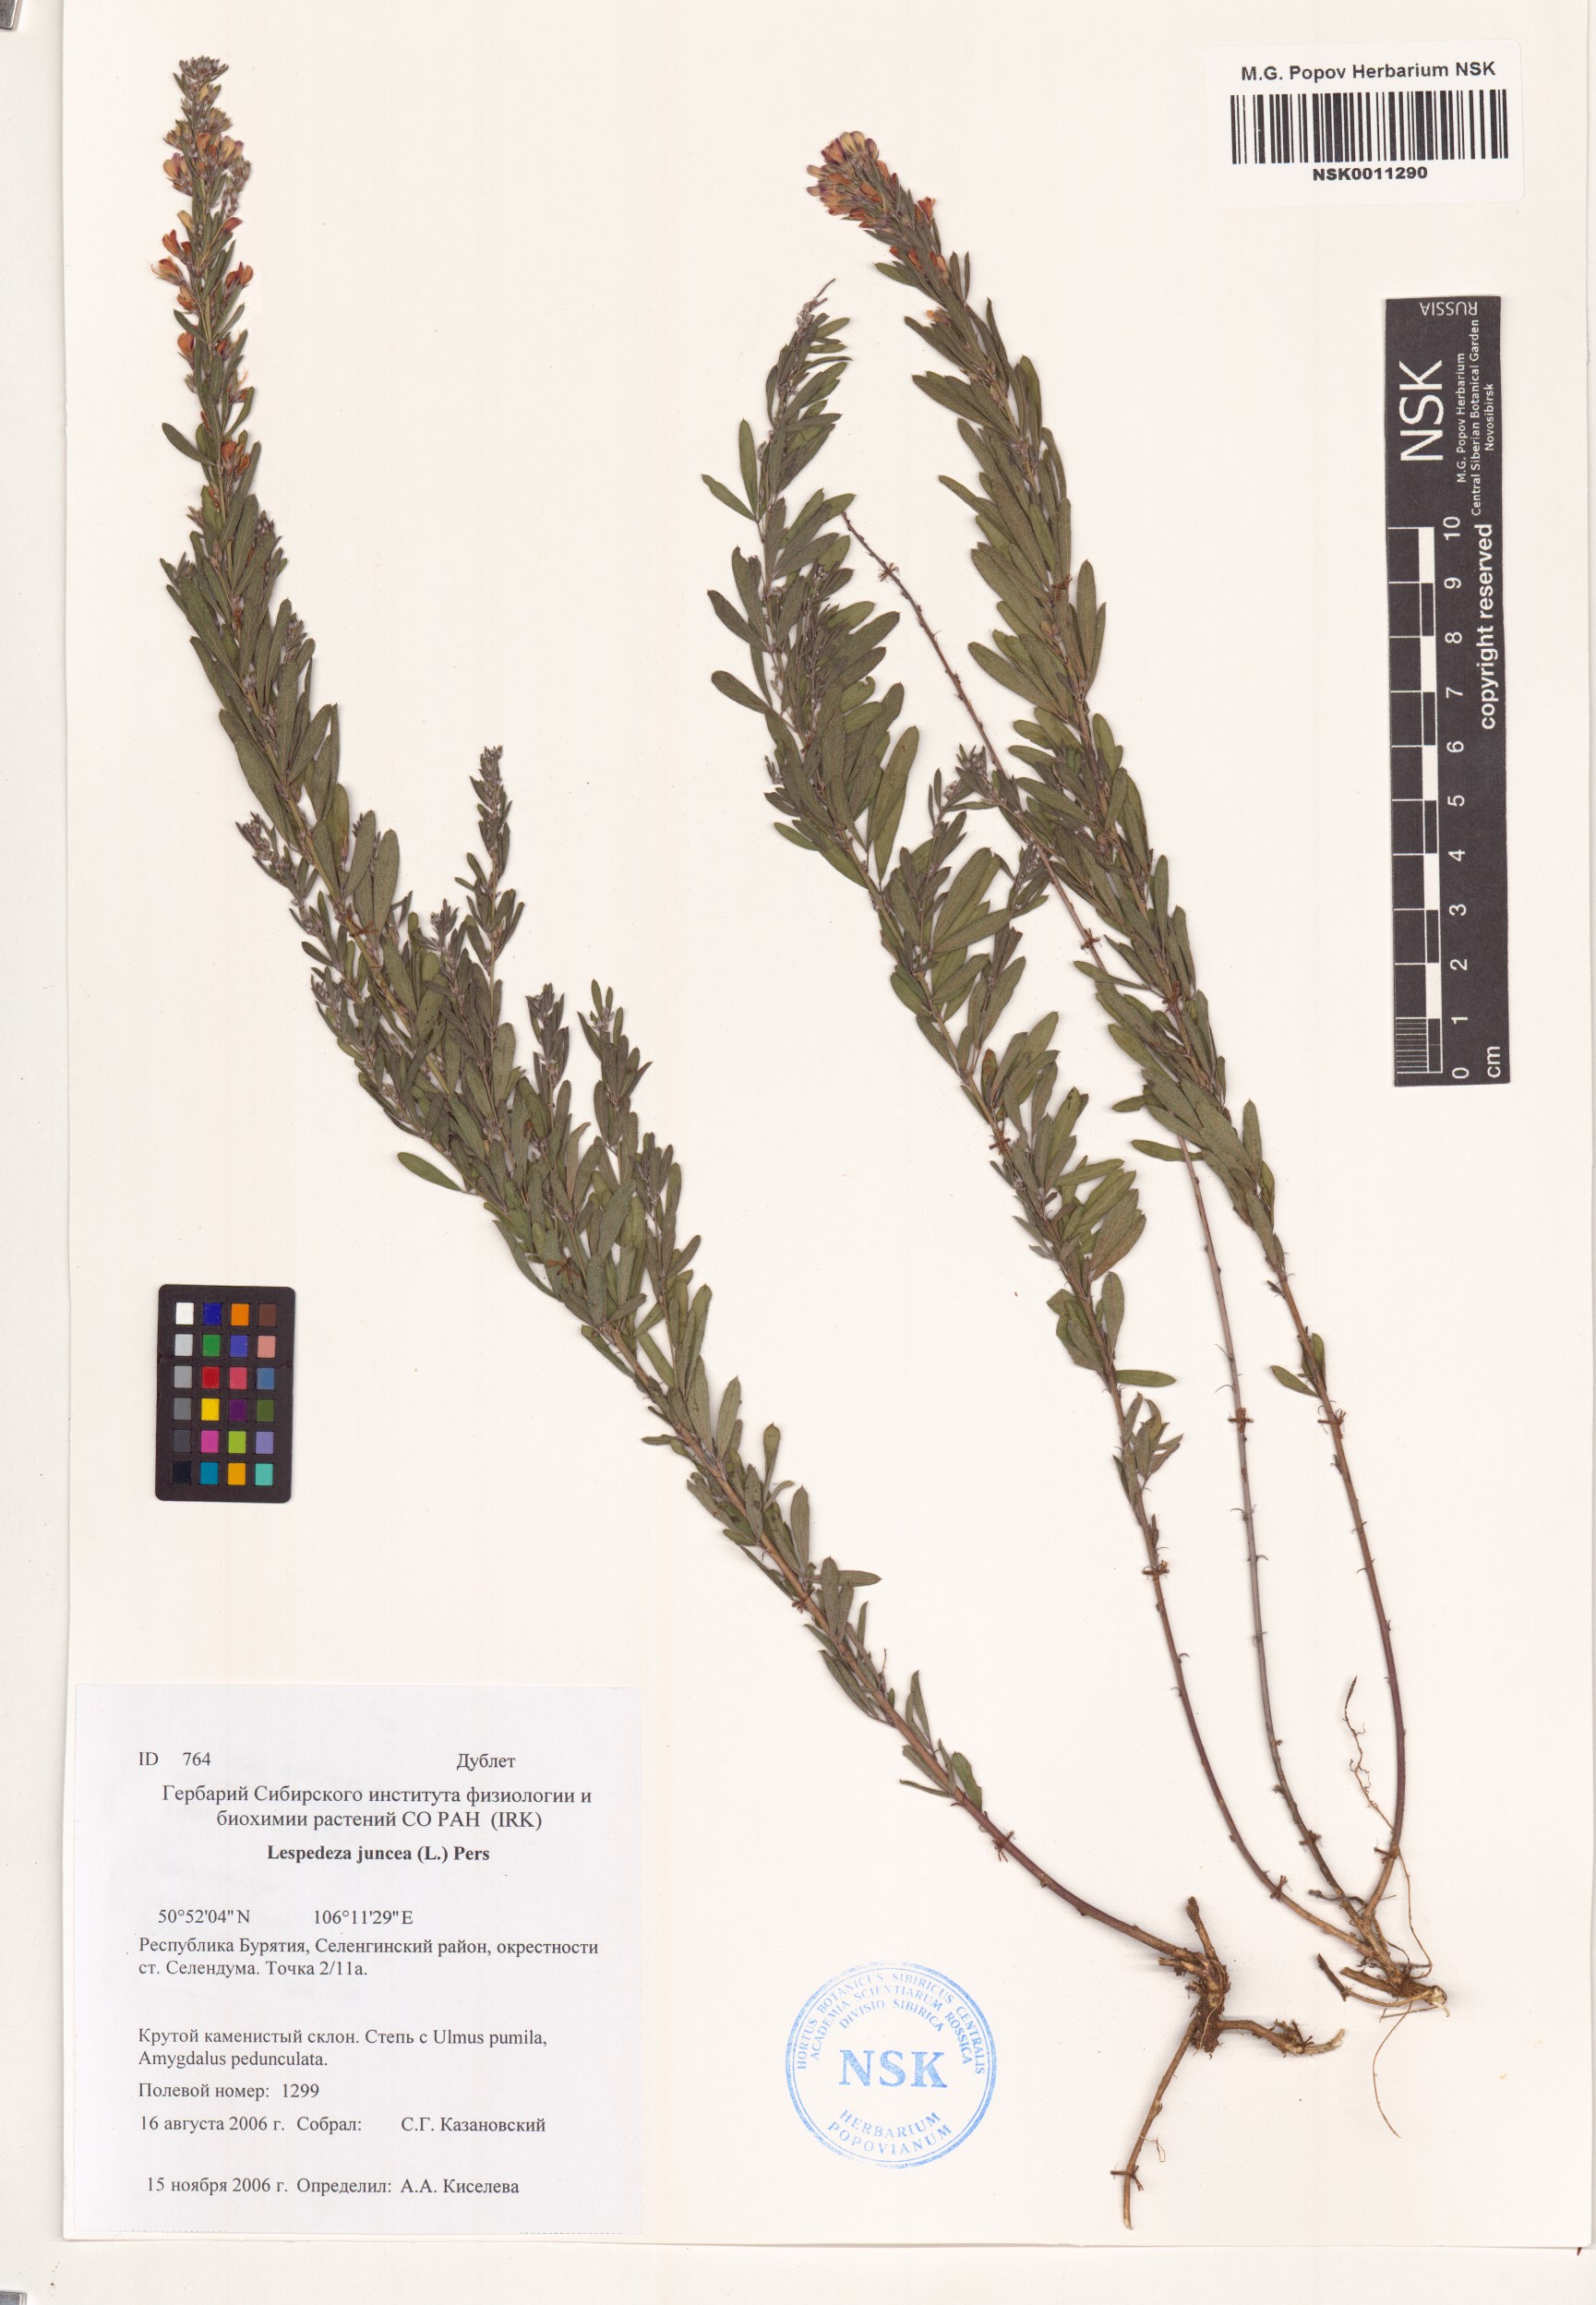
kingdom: Plantae
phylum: Tracheophyta
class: Magnoliopsida
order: Fabales
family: Fabaceae
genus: Lespedeza
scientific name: Lespedeza juncea
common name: Siberian lespedeza
